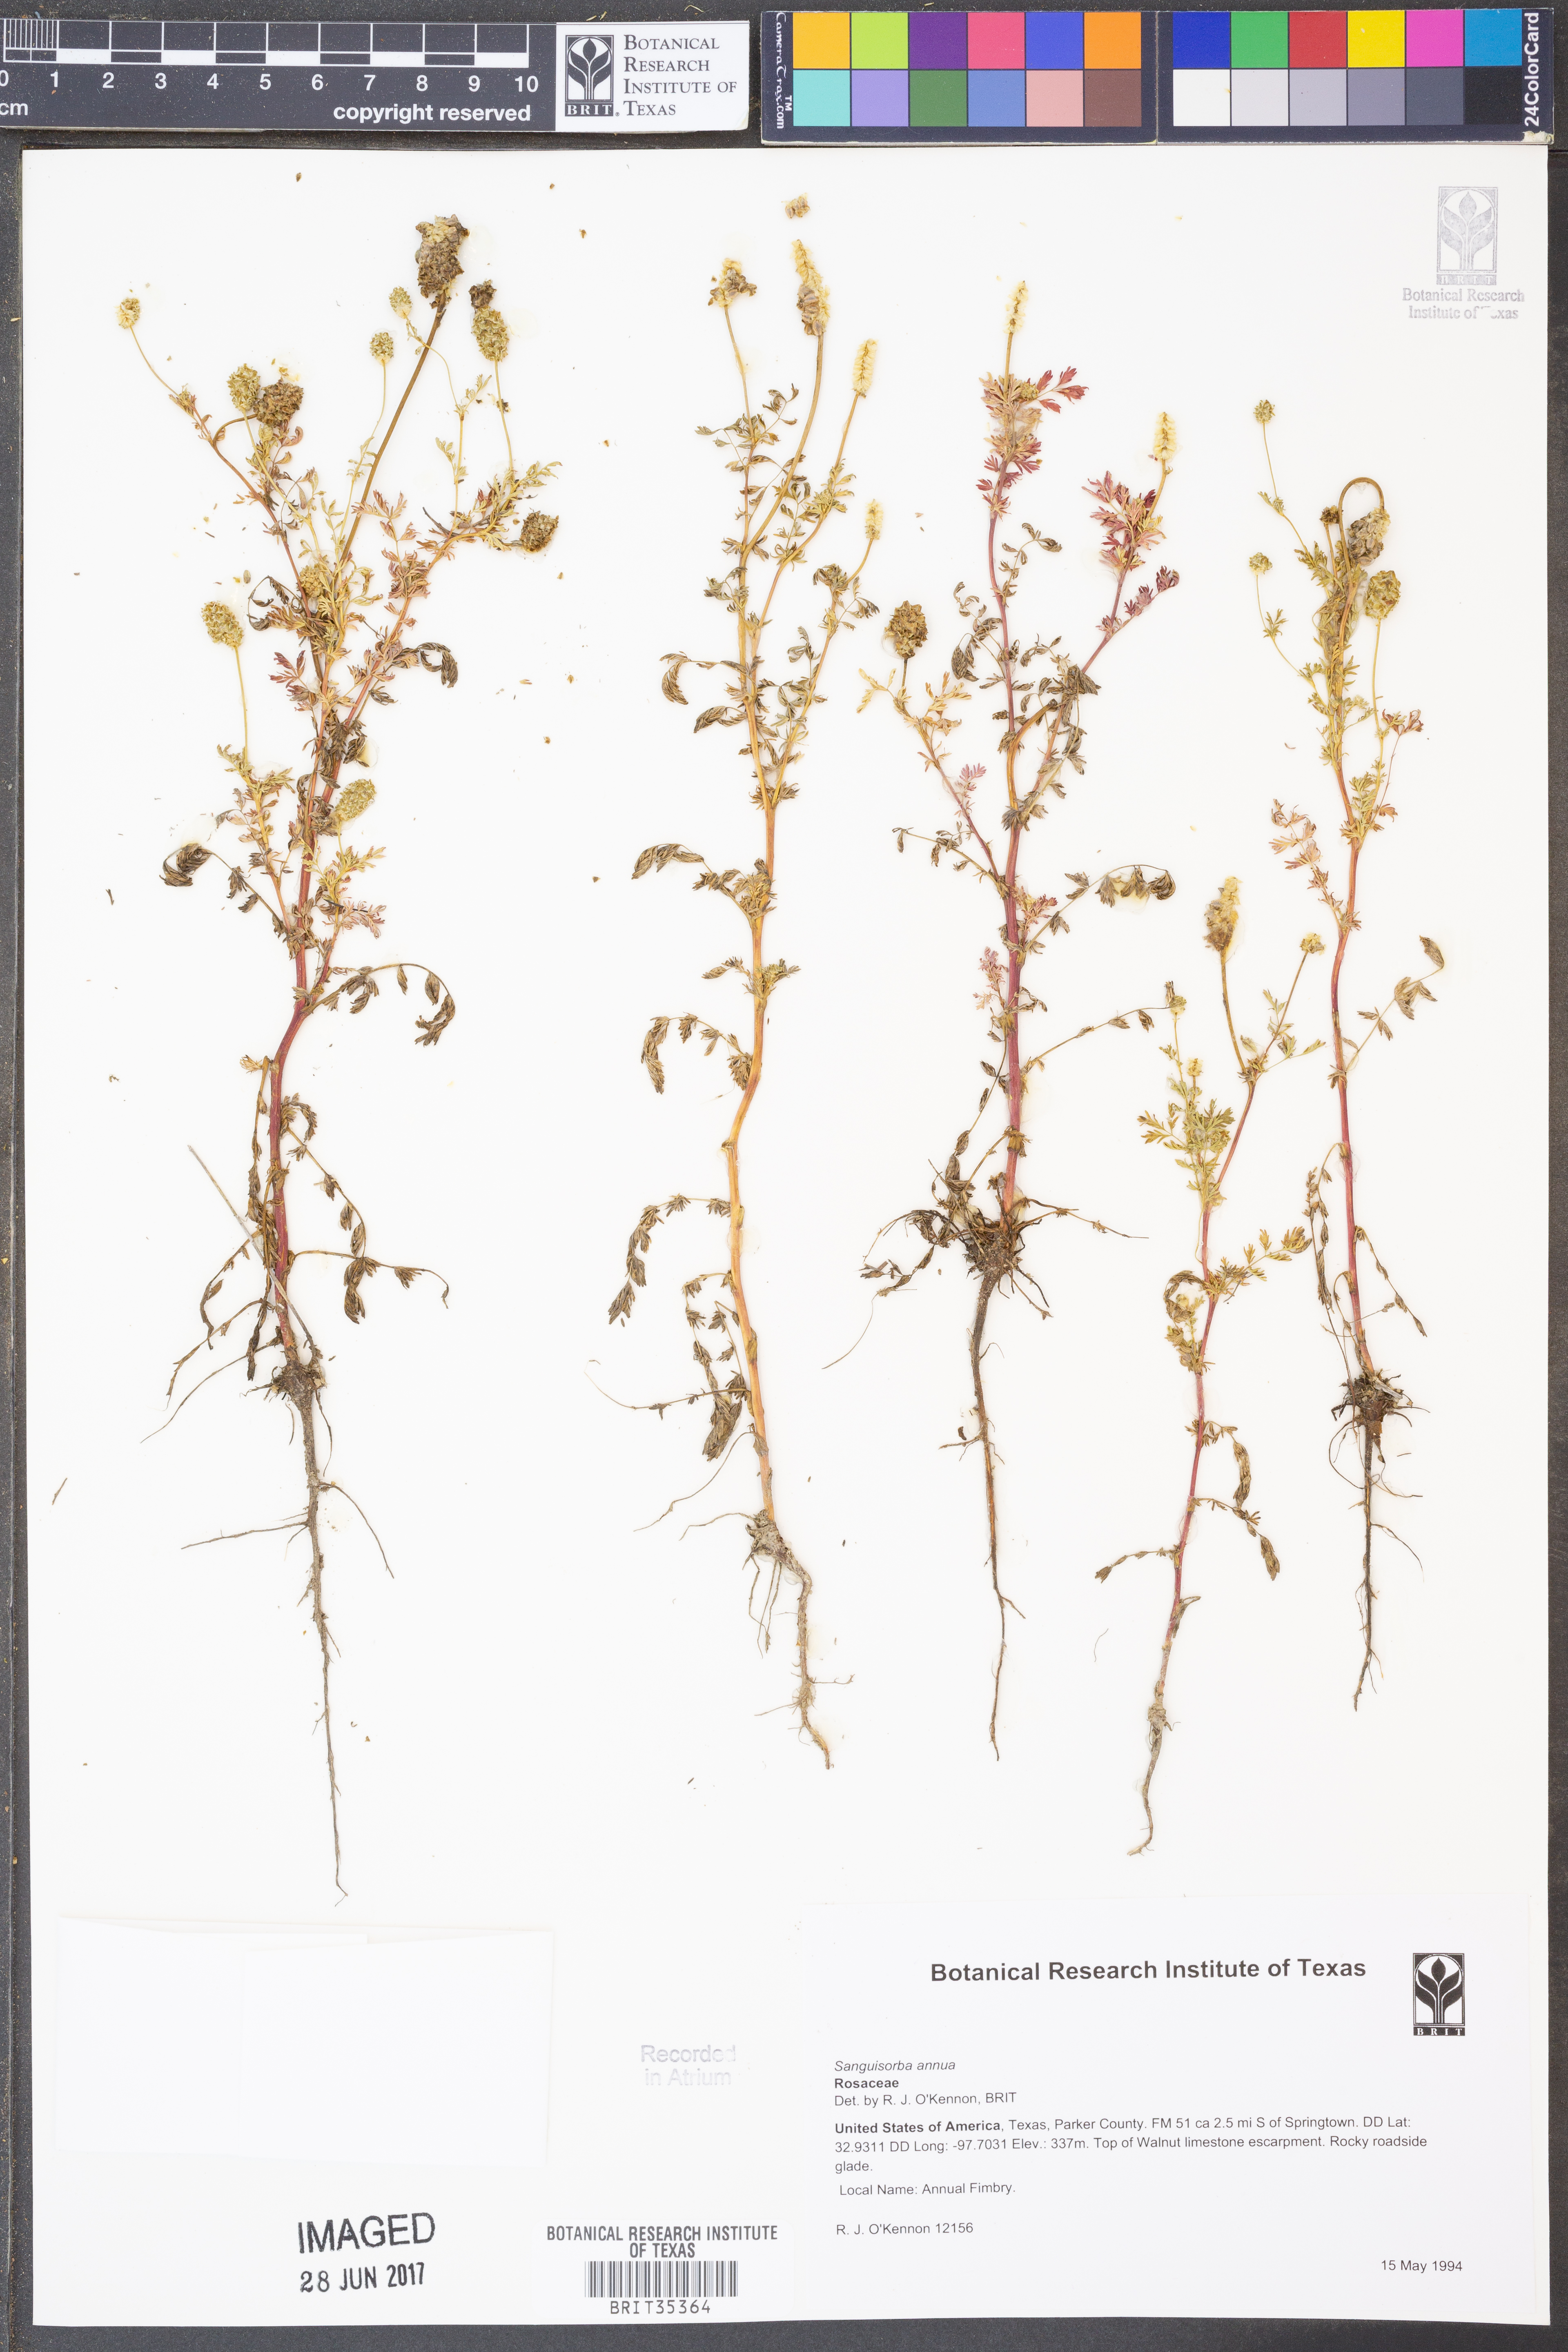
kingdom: Plantae
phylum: Tracheophyta
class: Magnoliopsida
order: Rosales
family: Rosaceae
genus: Poteridium
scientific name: Poteridium annuum
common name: Annual burnet
